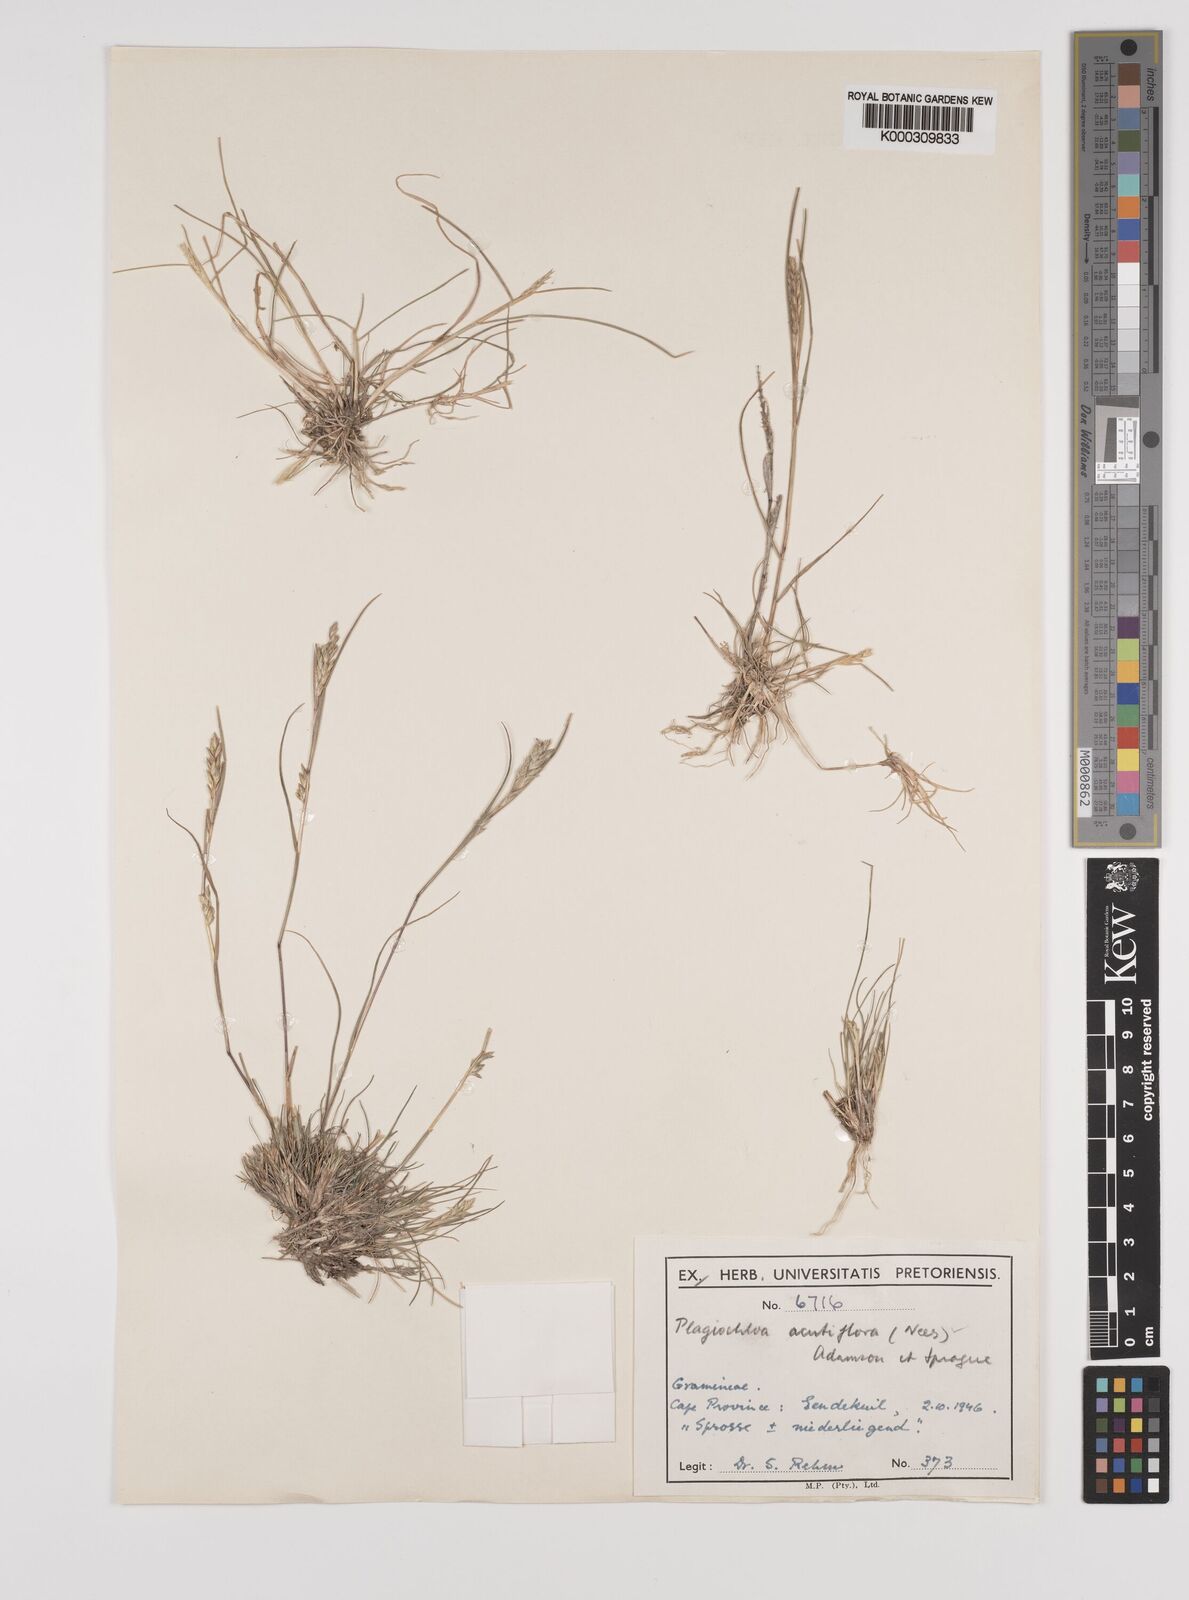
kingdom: Plantae
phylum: Tracheophyta
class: Liliopsida
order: Poales
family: Poaceae
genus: Tribolium
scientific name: Tribolium acutiflorum
